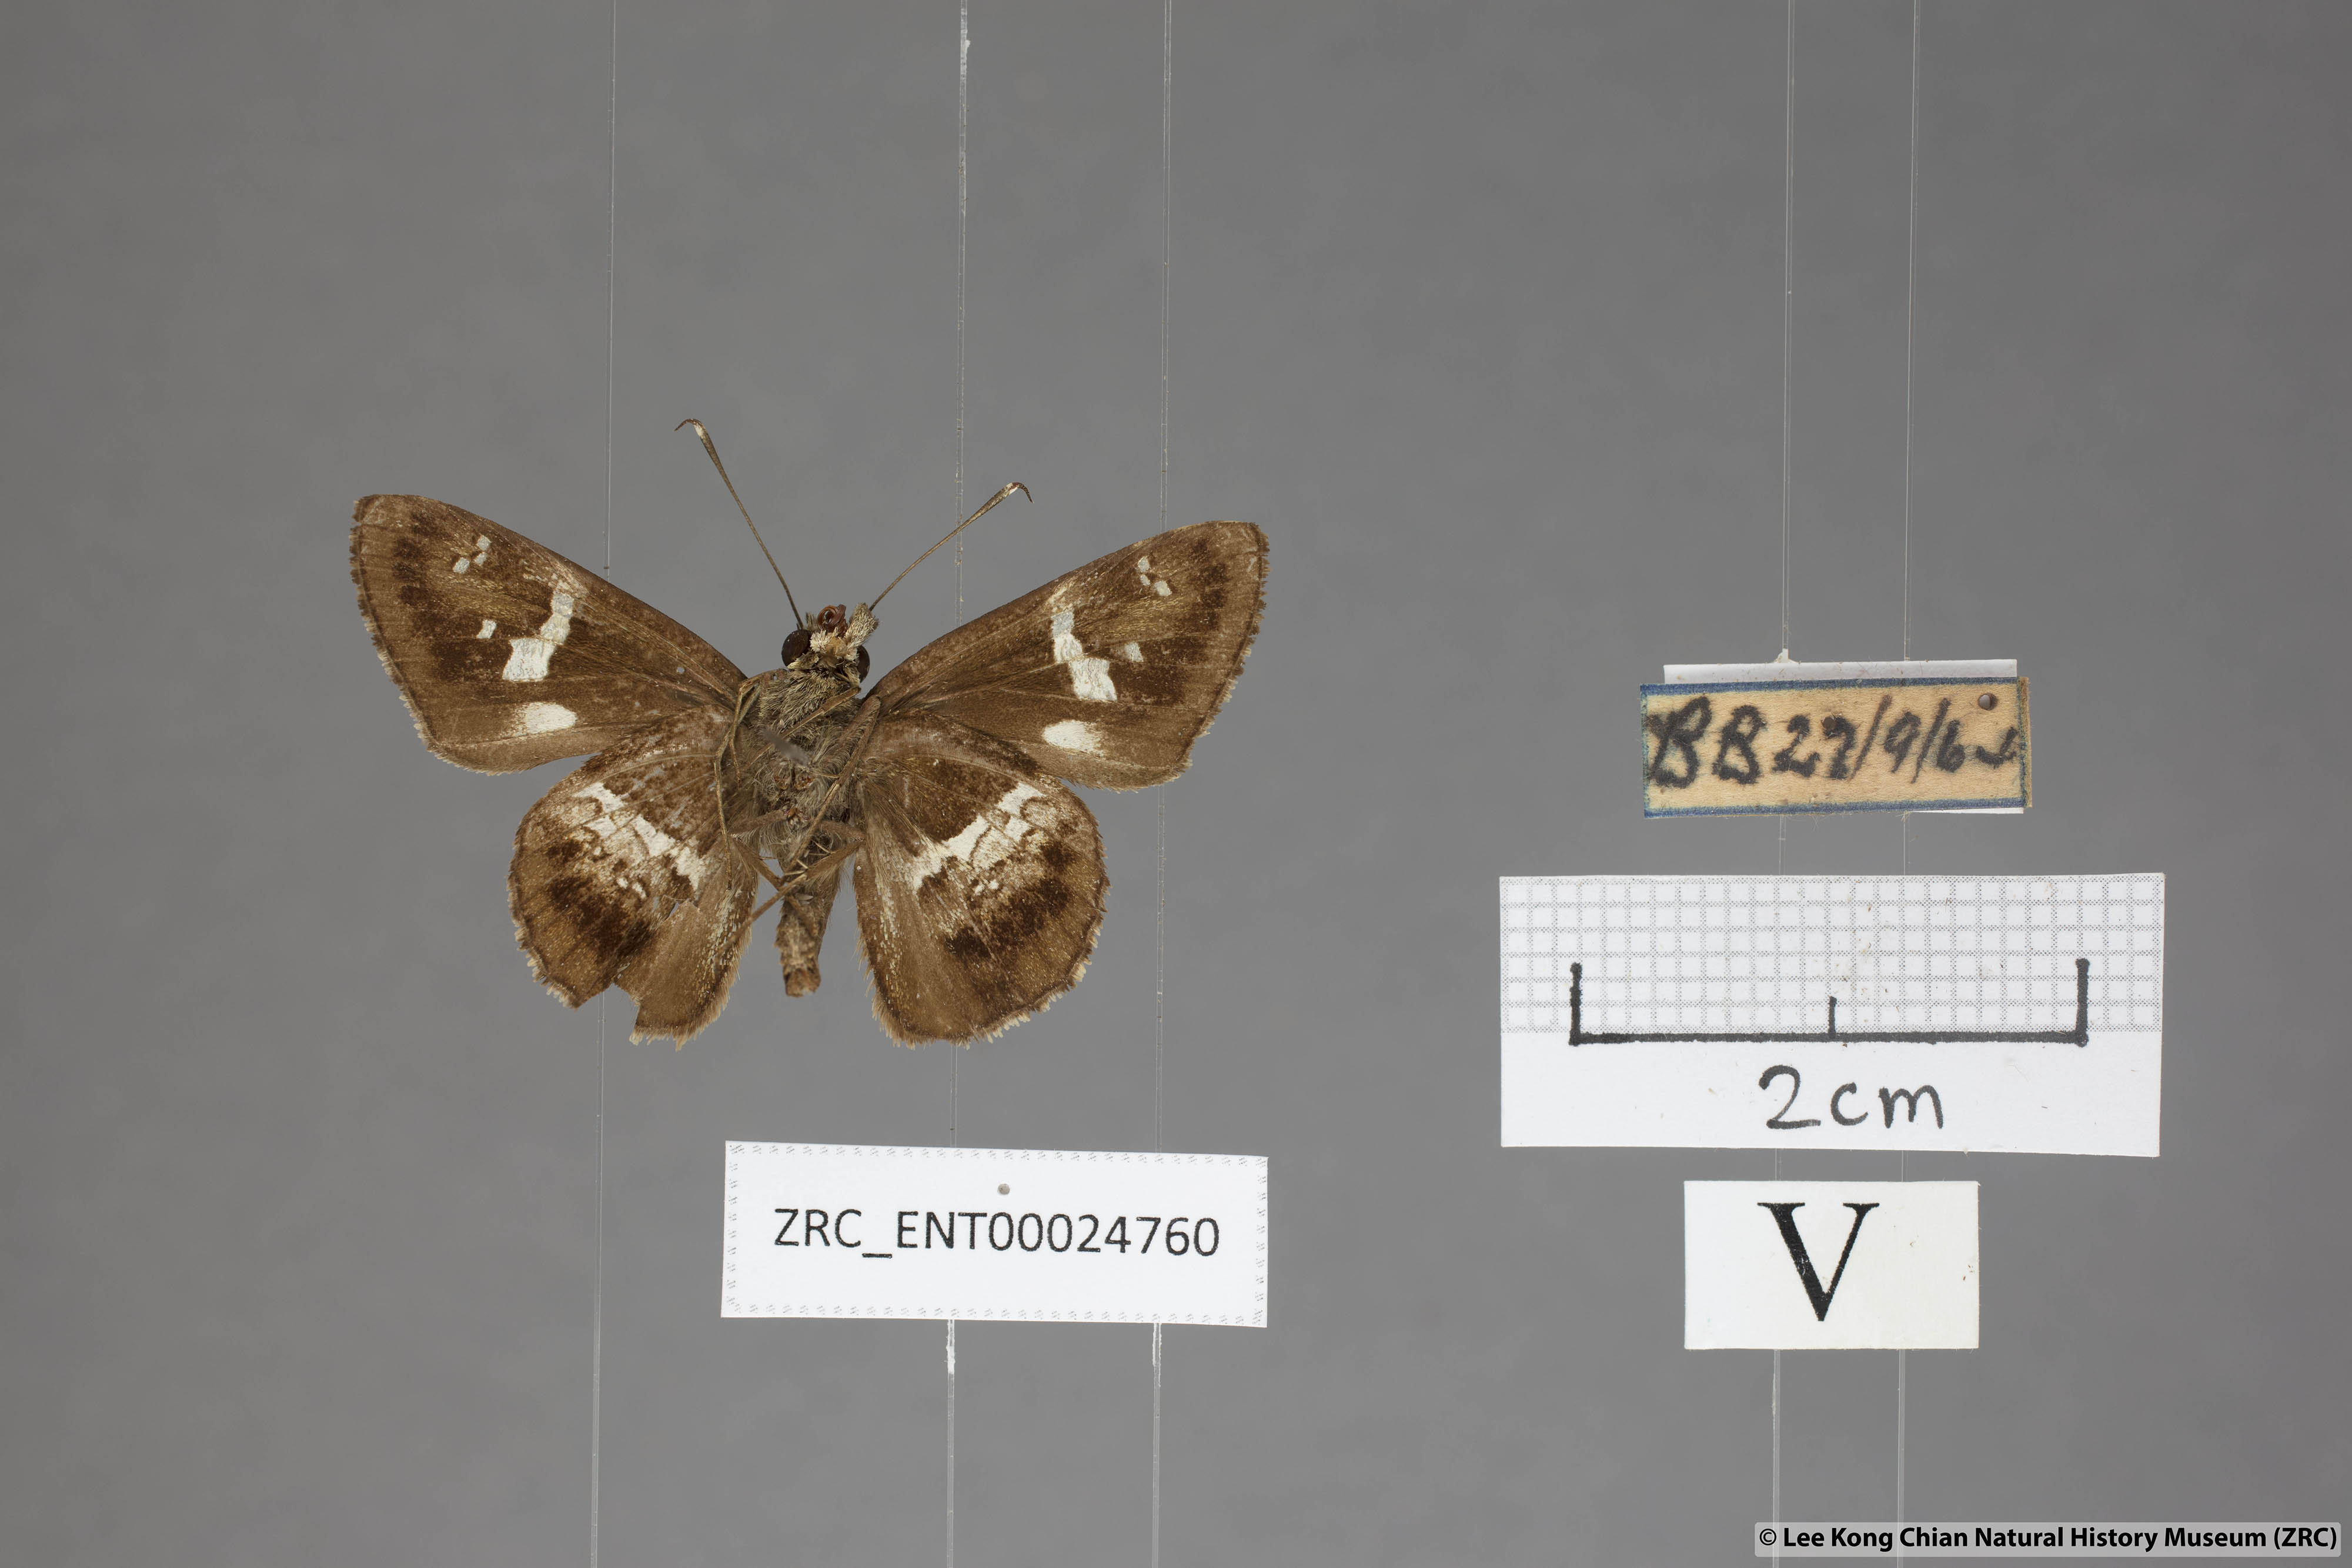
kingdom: Animalia
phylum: Arthropoda
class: Insecta
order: Lepidoptera
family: Hesperiidae
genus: Hyarotis
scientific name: Hyarotis adrastus
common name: Tree flitter
